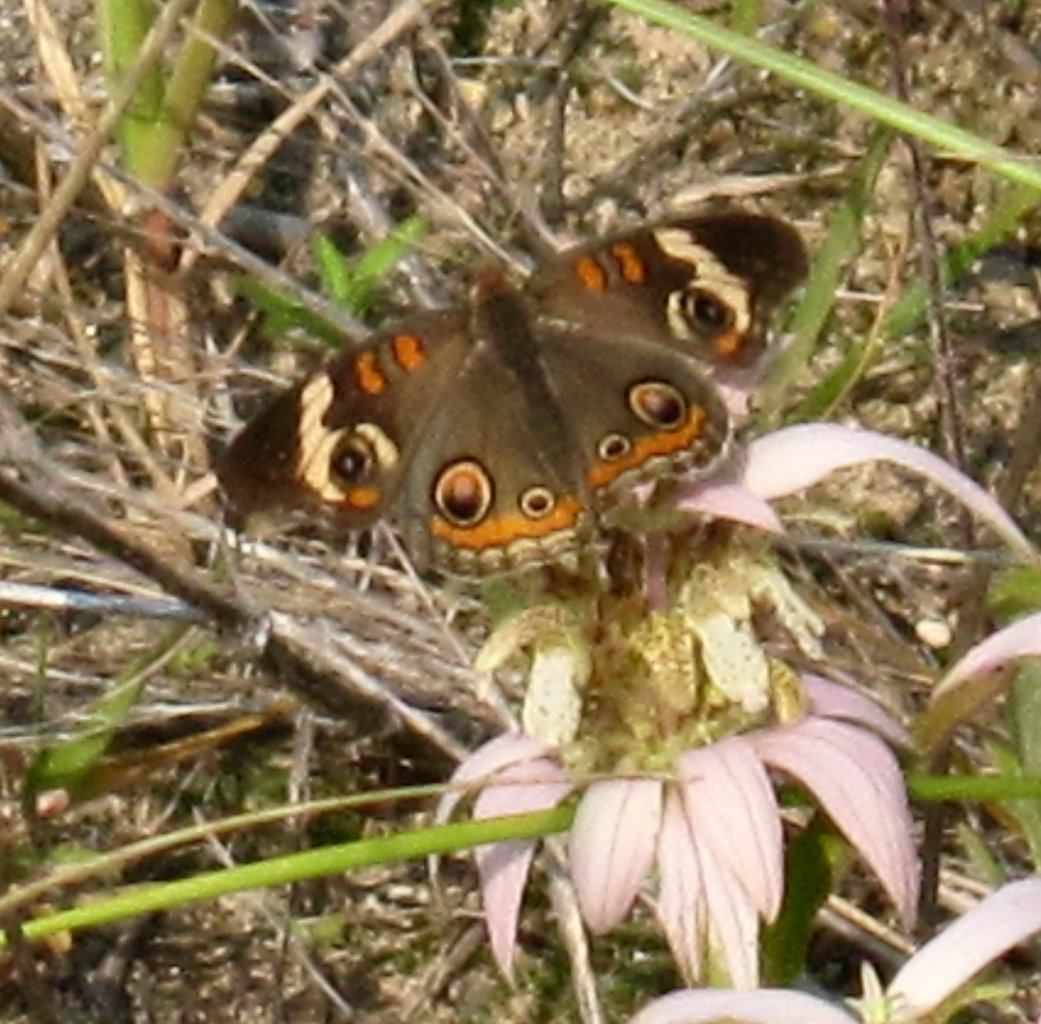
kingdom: Animalia
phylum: Arthropoda
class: Insecta
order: Lepidoptera
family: Nymphalidae
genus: Junonia
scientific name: Junonia coenia
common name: Common Buckeye
